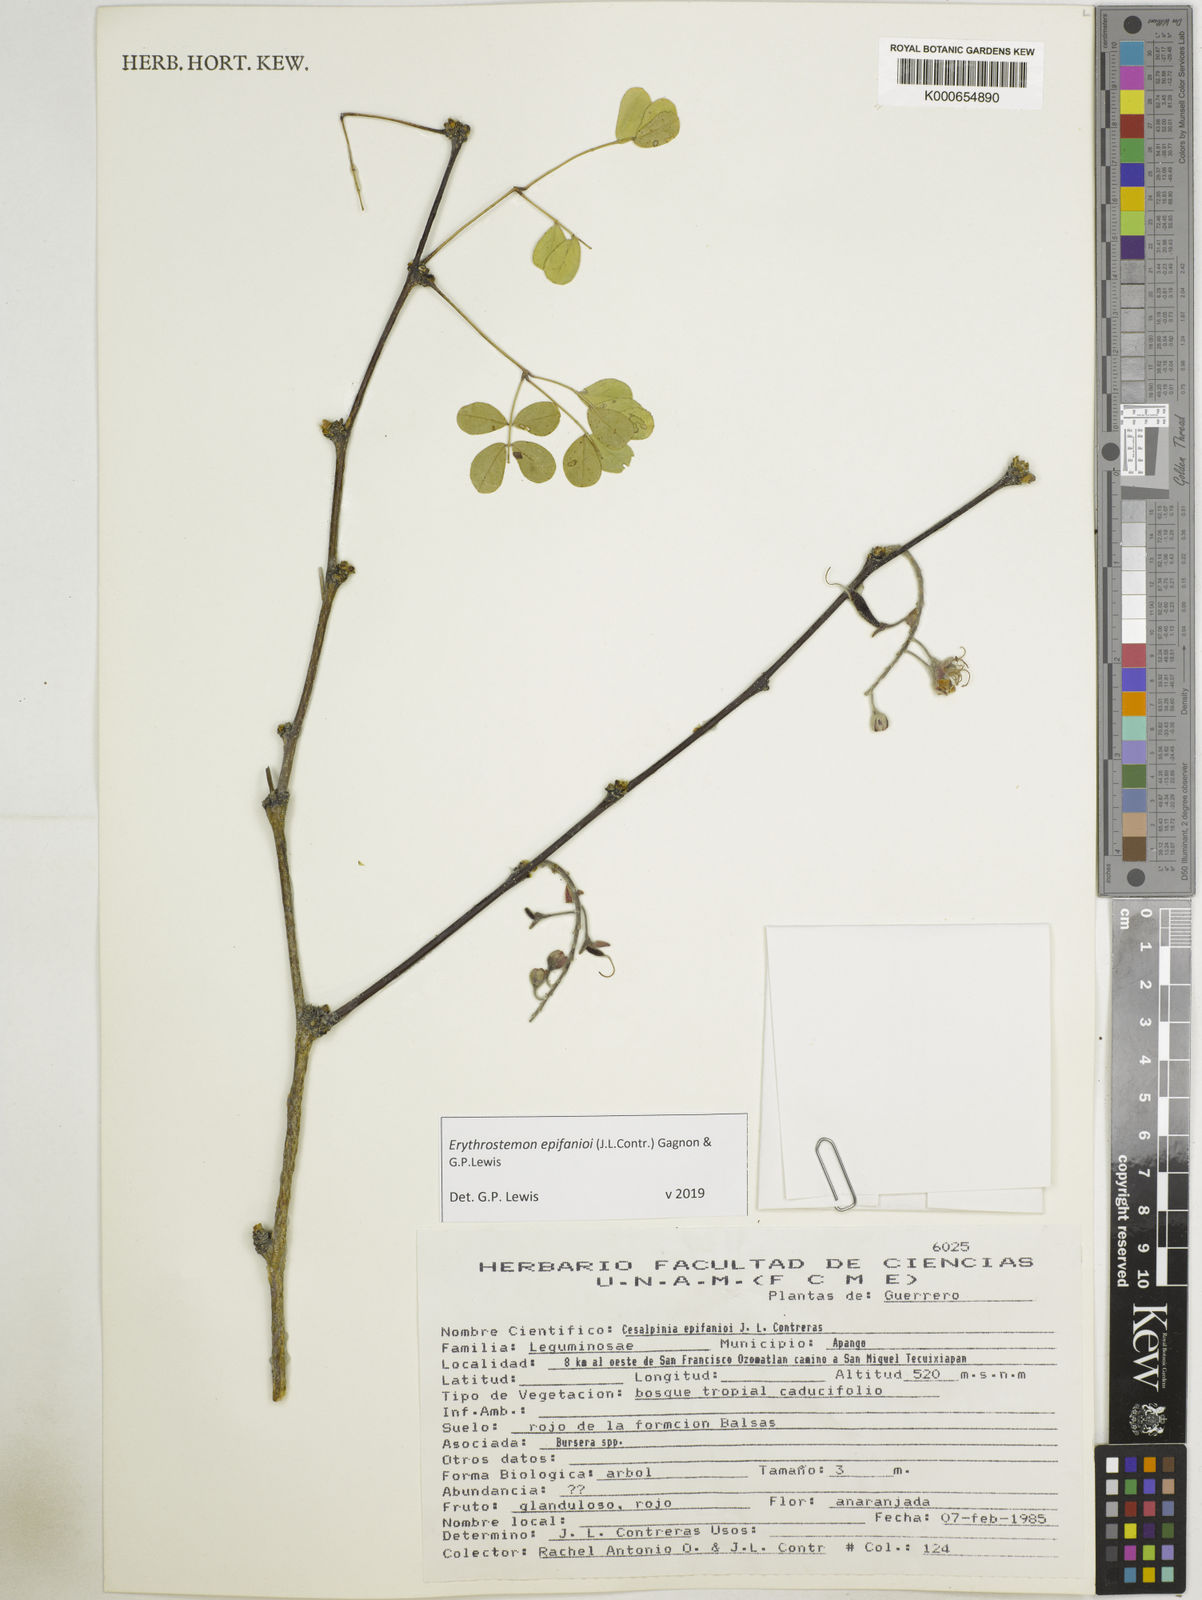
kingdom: Plantae
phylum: Tracheophyta
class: Magnoliopsida
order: Fabales
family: Fabaceae
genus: Erythrostemon
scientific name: Erythrostemon epifanioi
